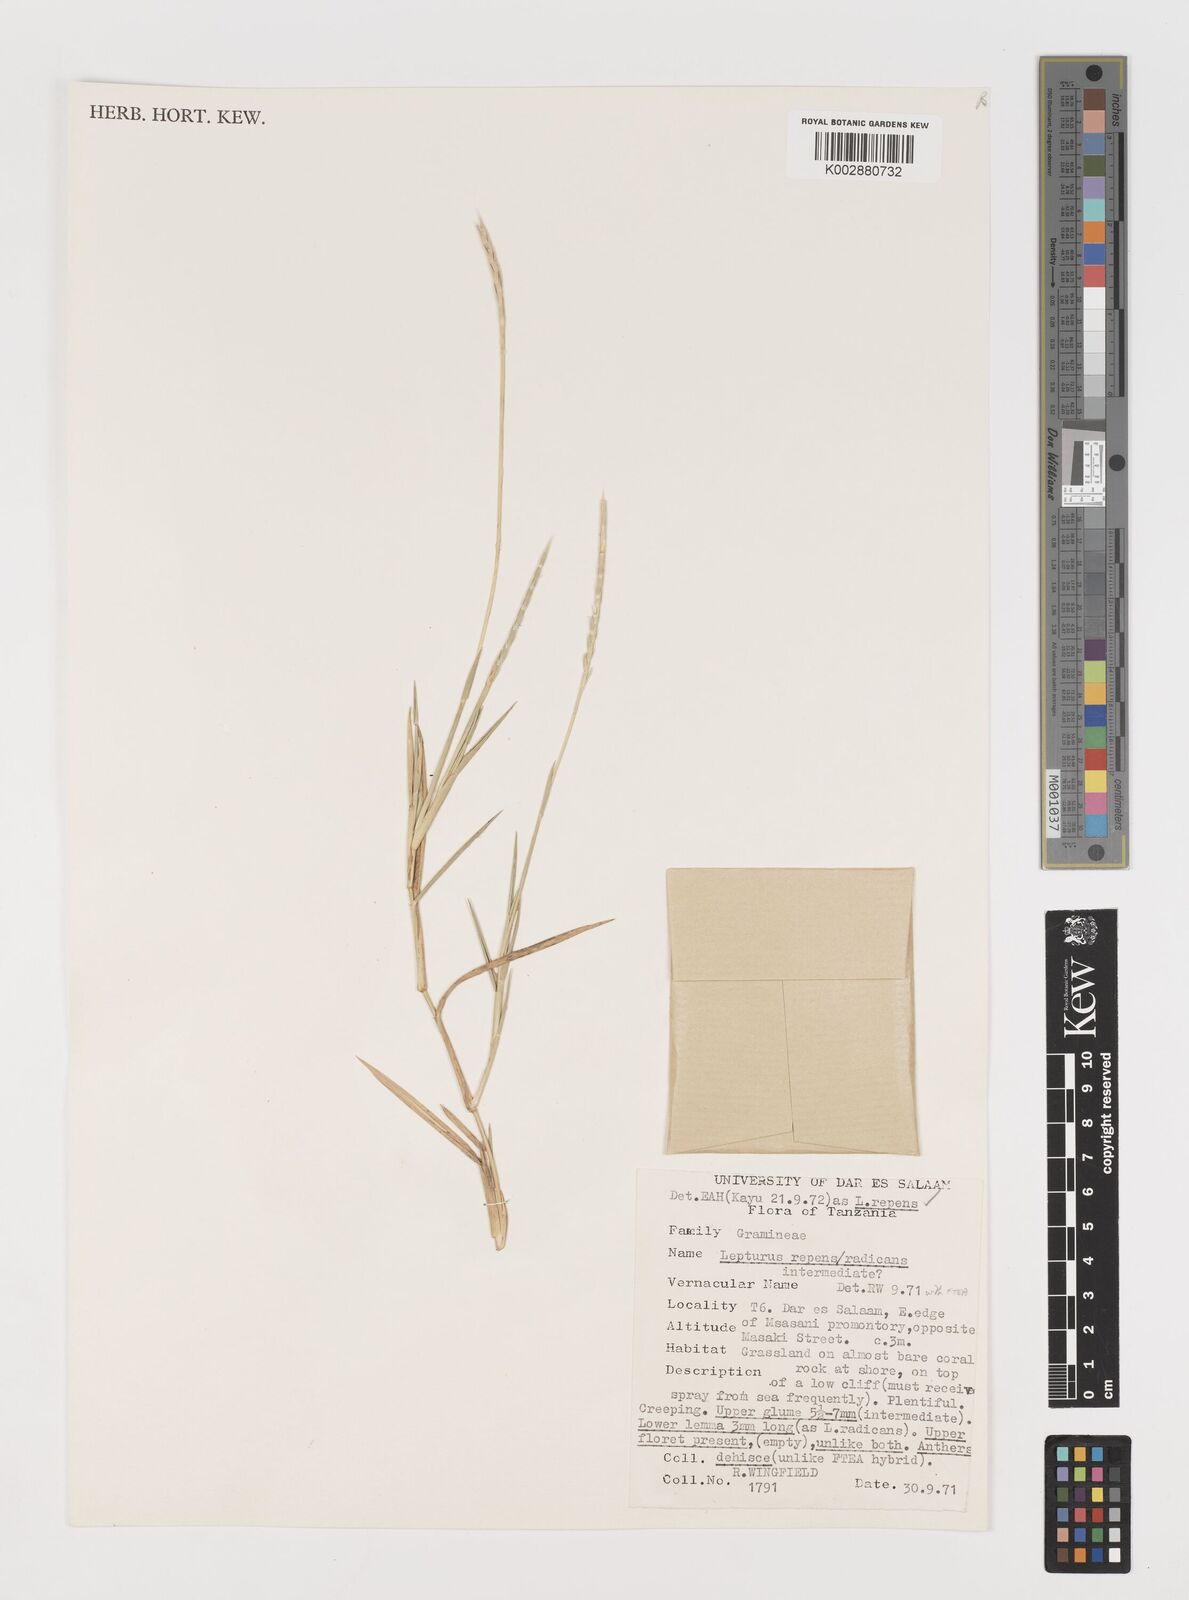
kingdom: Plantae
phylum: Tracheophyta
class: Liliopsida
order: Poales
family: Poaceae
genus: Lepturus
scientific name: Lepturus repens
